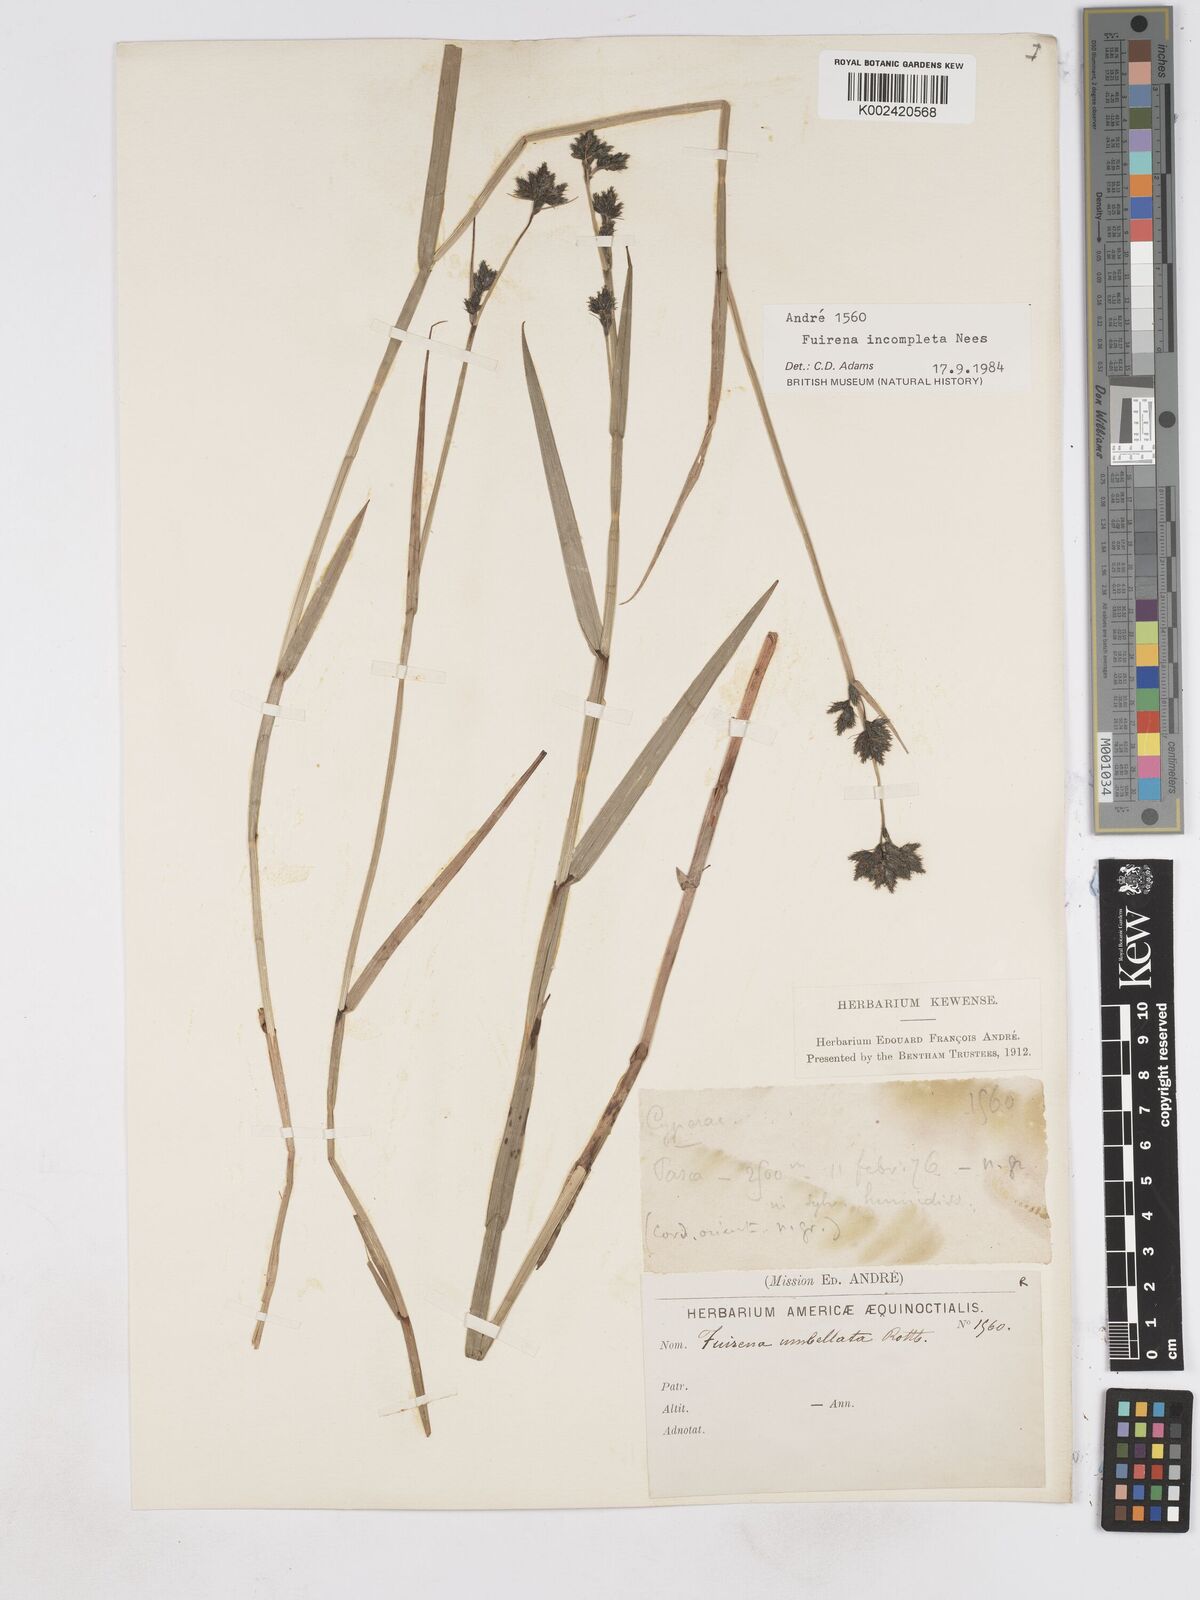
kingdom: Plantae
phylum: Tracheophyta
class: Liliopsida
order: Poales
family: Cyperaceae
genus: Fuirena
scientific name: Fuirena incompleta
